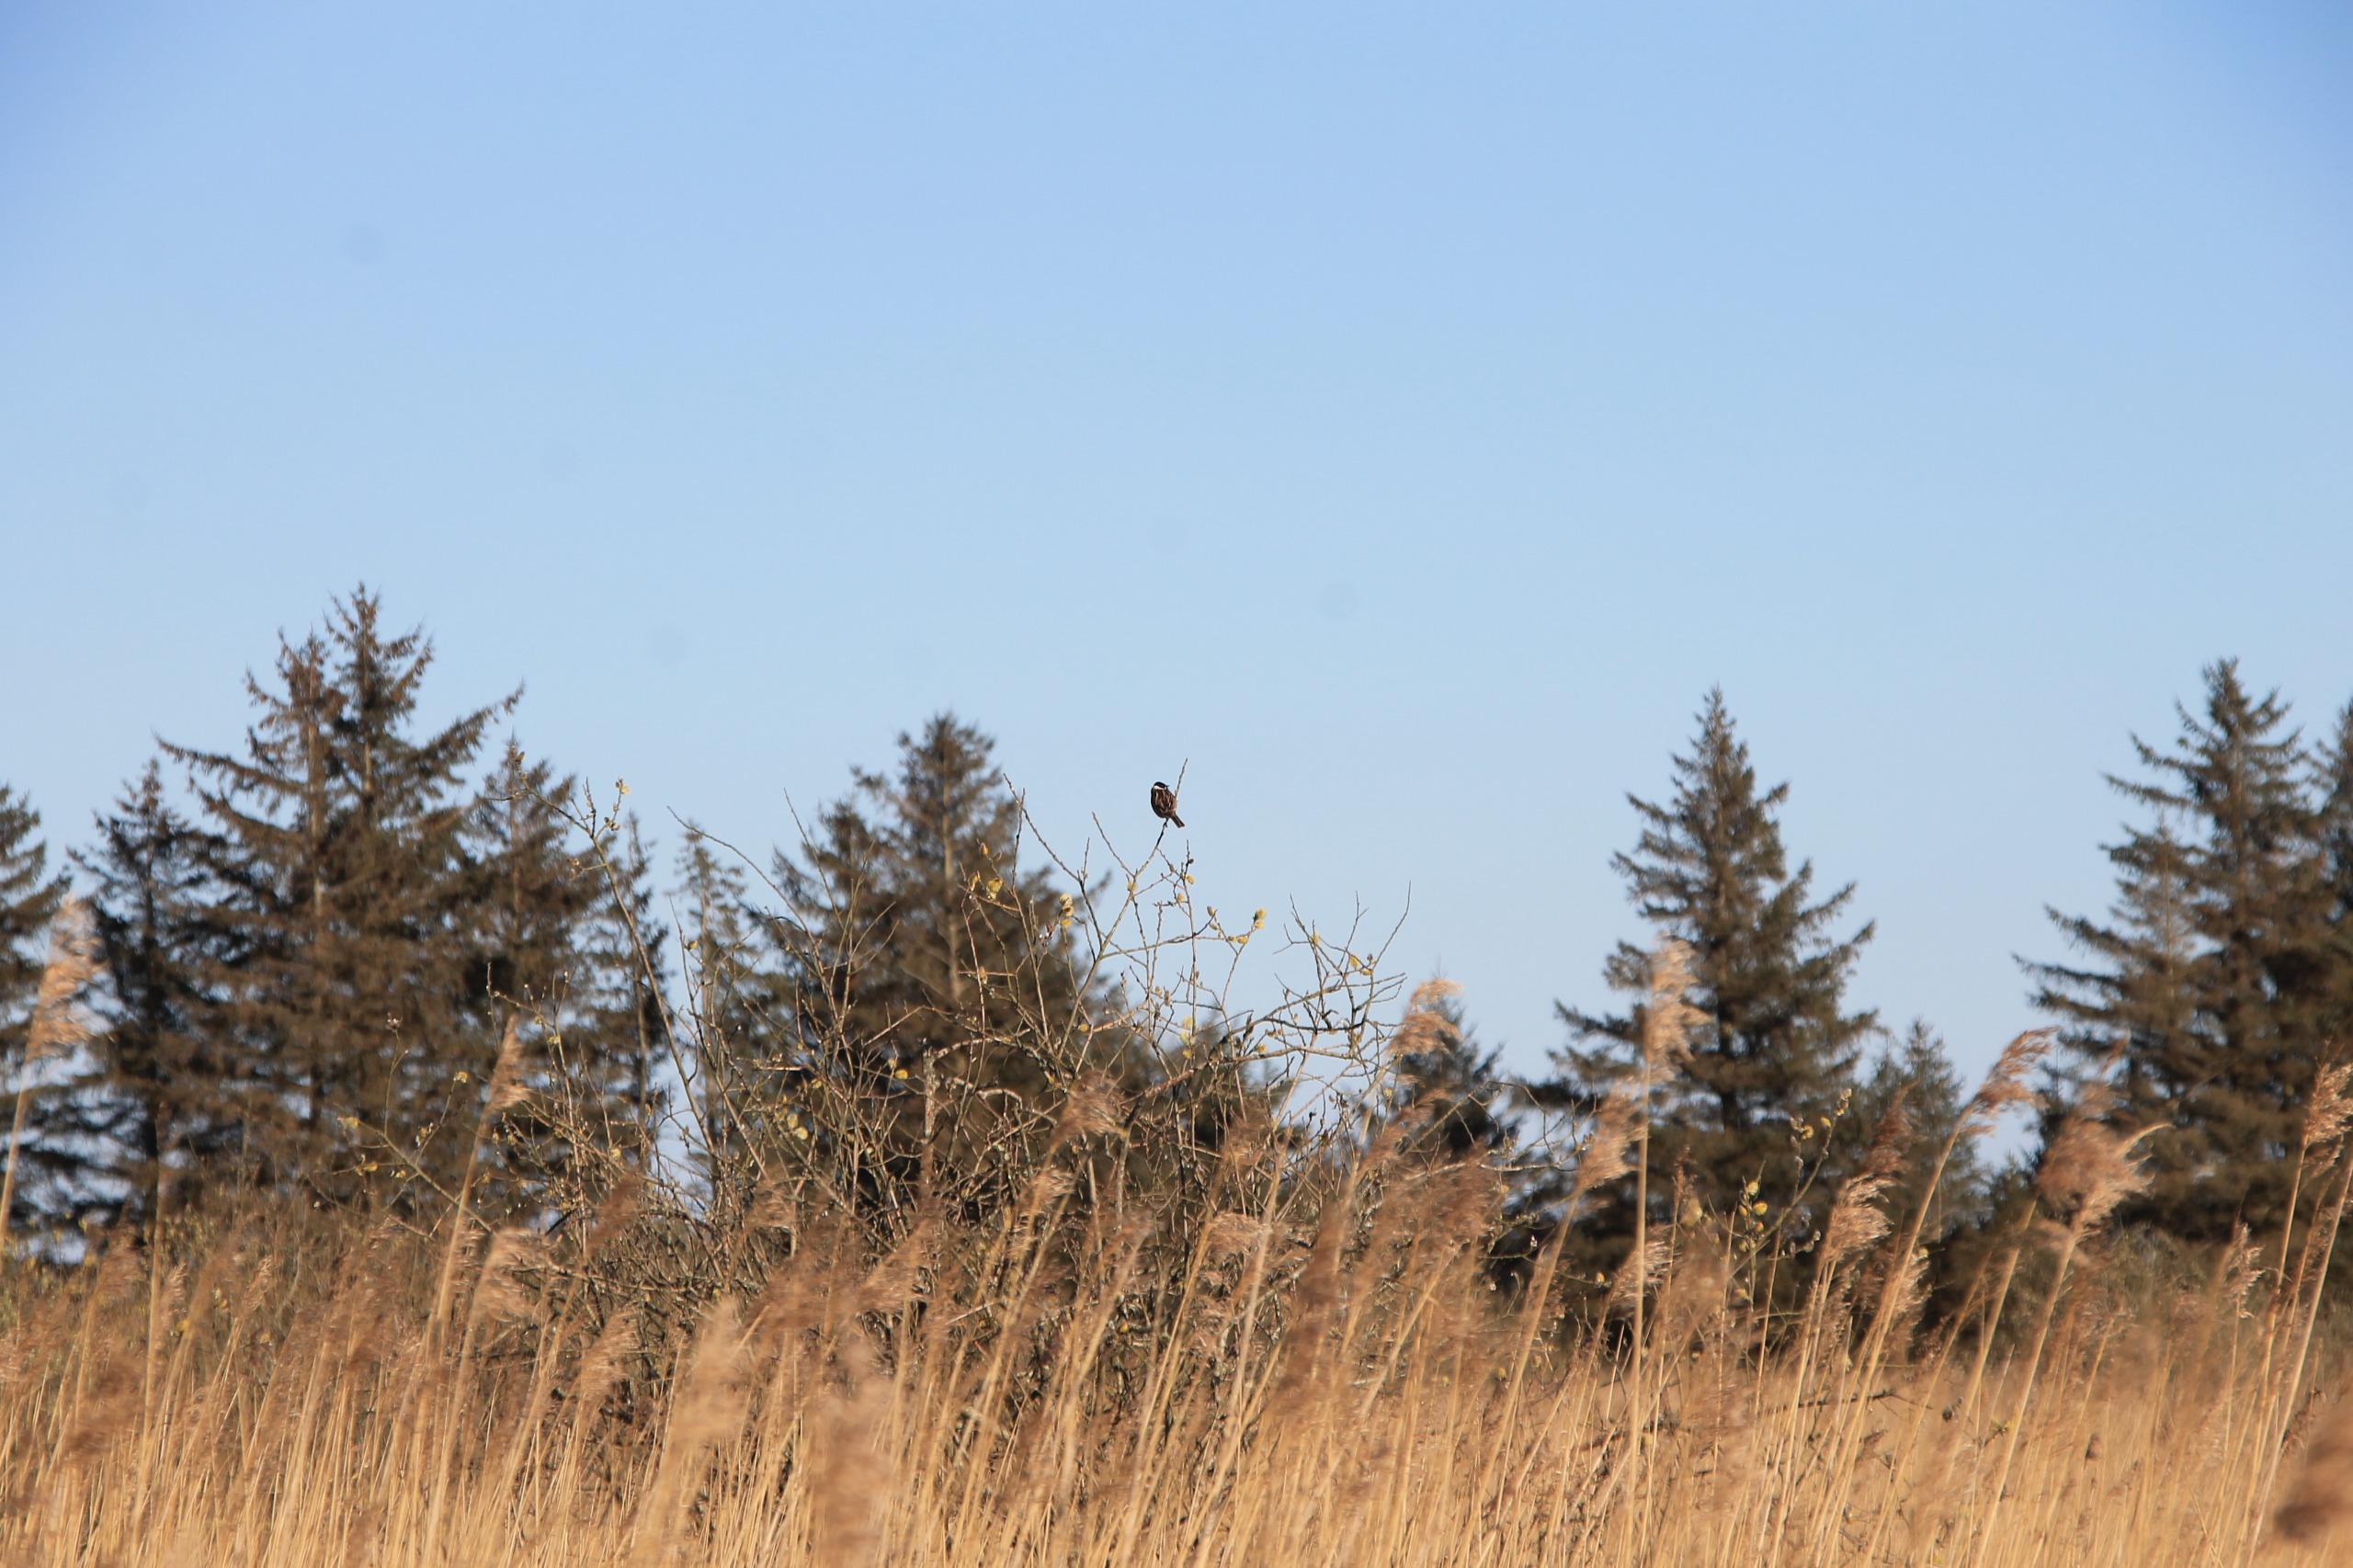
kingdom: Animalia
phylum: Chordata
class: Aves
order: Passeriformes
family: Emberizidae
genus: Emberiza
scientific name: Emberiza schoeniclus
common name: Rørspurv
